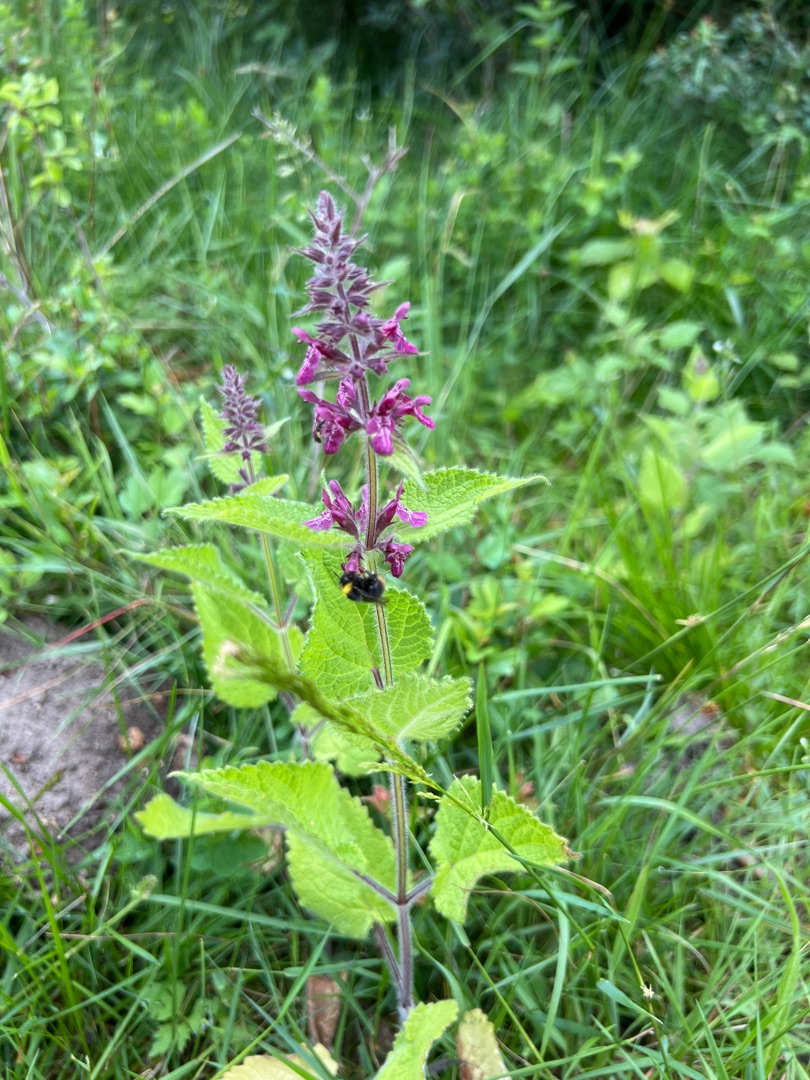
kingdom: Plantae
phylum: Tracheophyta
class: Magnoliopsida
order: Lamiales
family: Lamiaceae
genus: Stachys
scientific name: Stachys sylvatica
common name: Skov-galtetand
